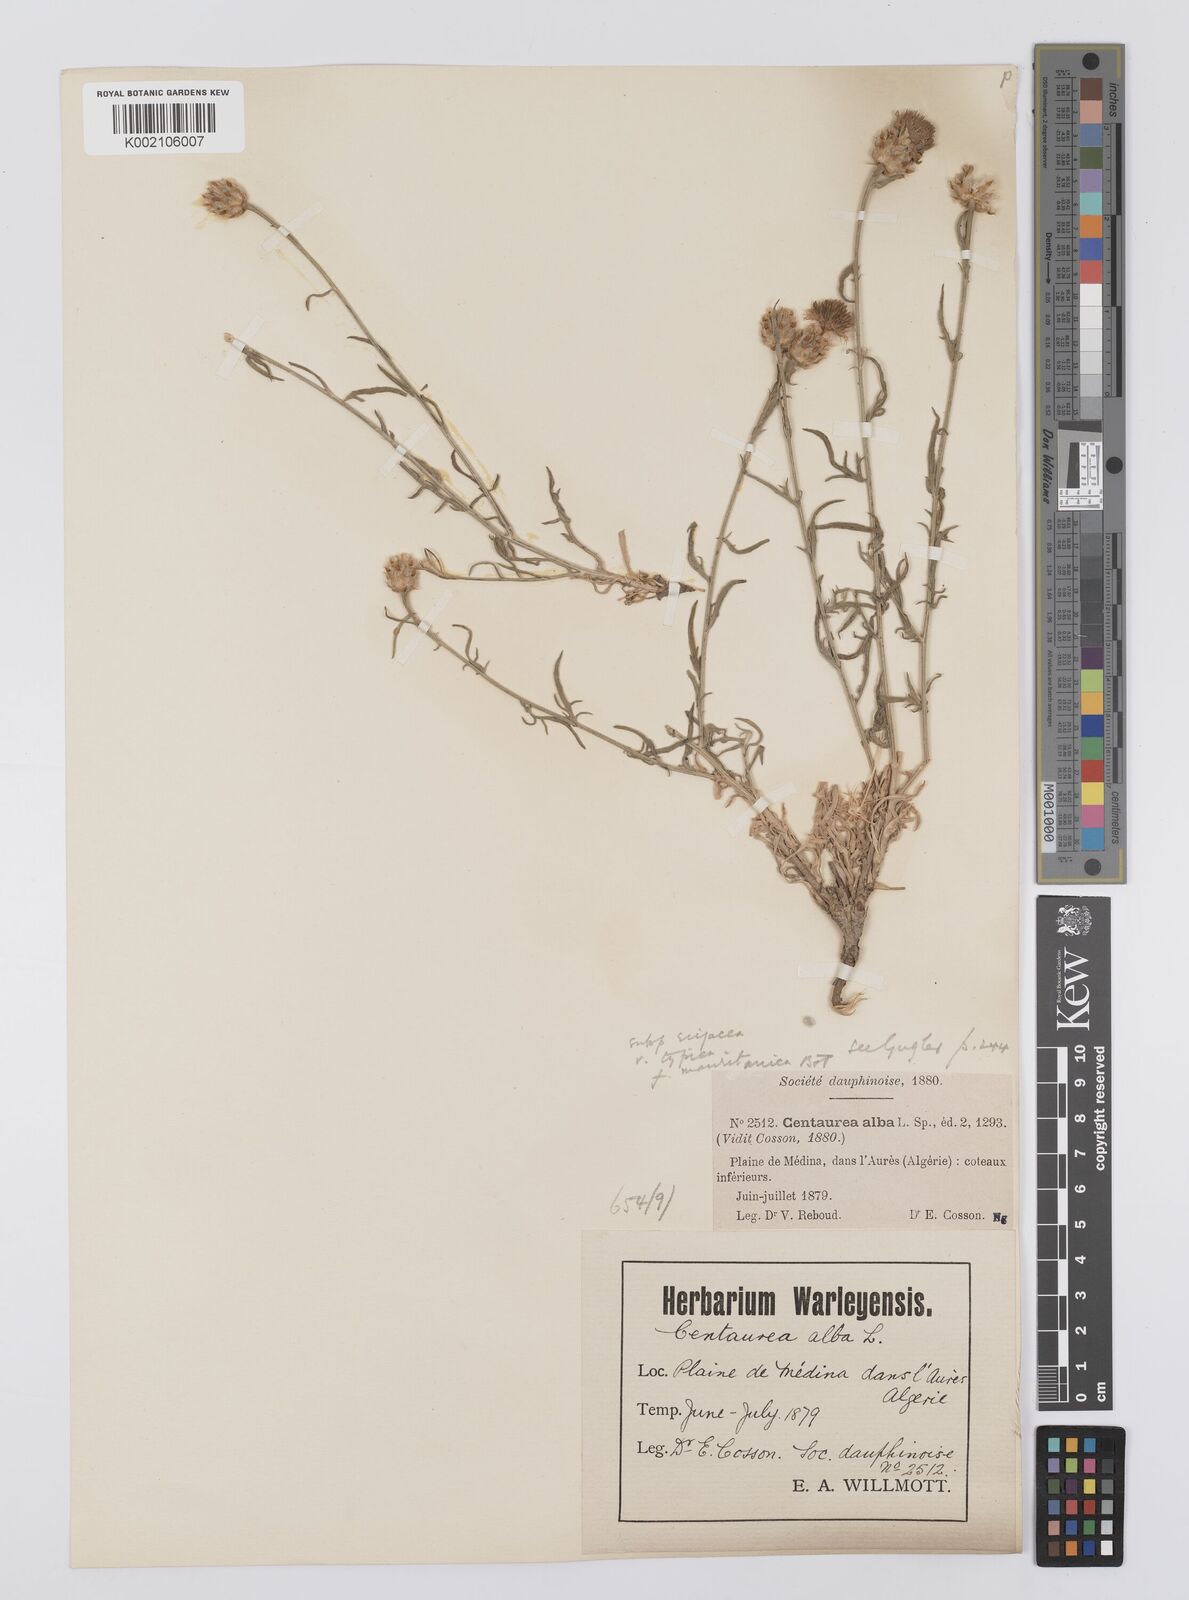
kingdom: Plantae
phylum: Tracheophyta
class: Magnoliopsida
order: Asterales
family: Asteraceae
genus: Centaurea
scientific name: Centaurea alba
